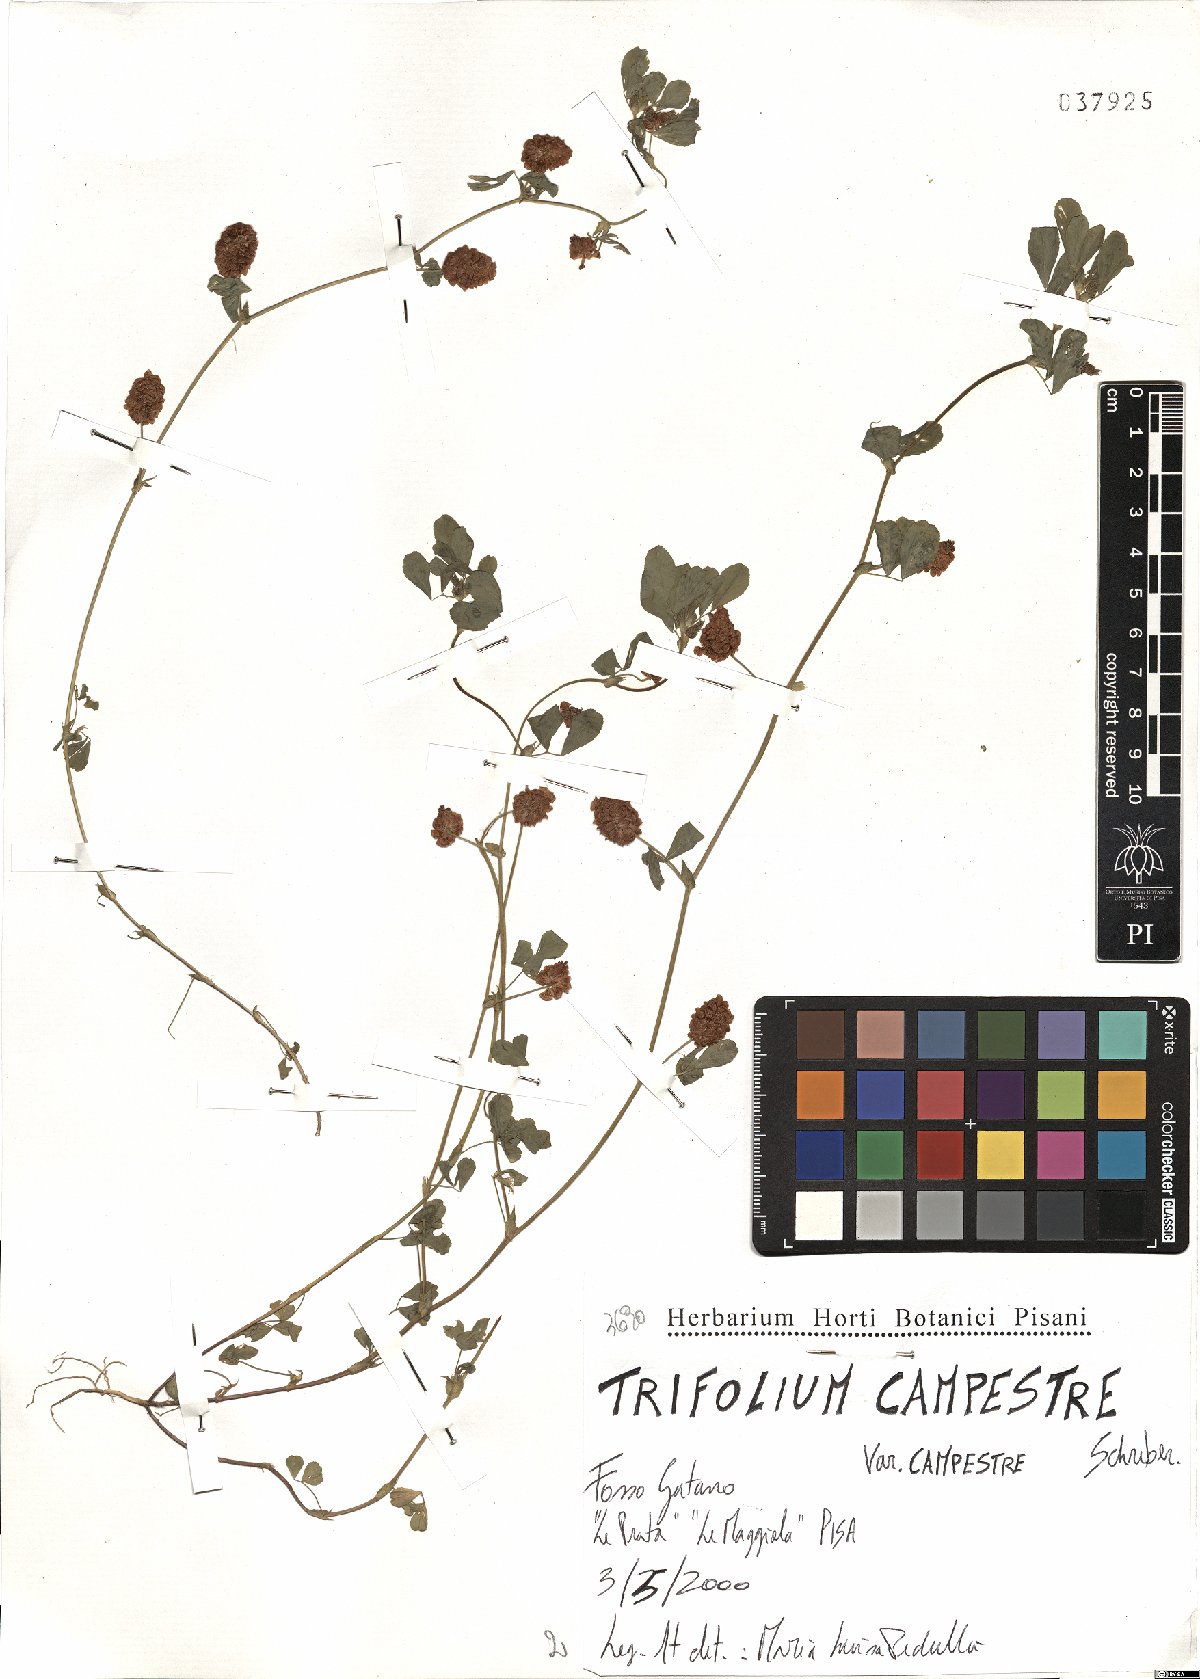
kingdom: Plantae
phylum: Tracheophyta
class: Magnoliopsida
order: Fabales
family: Fabaceae
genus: Trifolium
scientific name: Trifolium campestre
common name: Field clover
